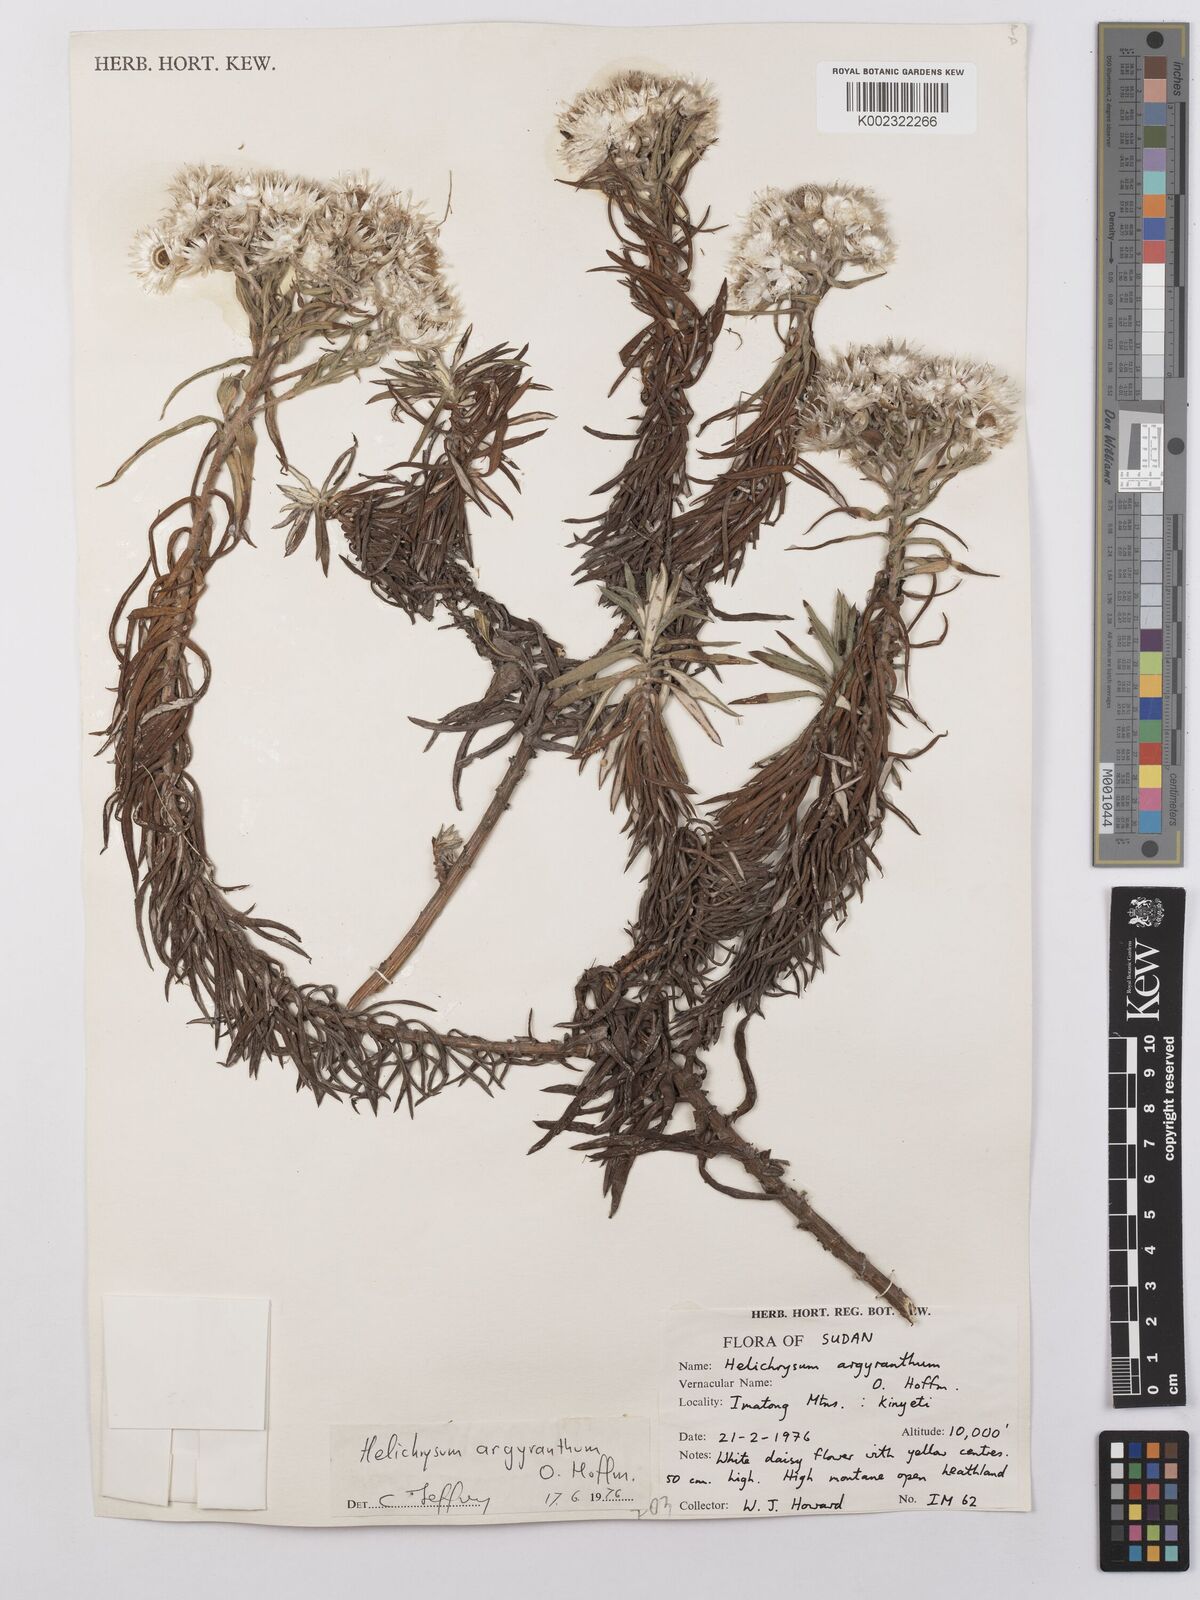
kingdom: Plantae
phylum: Tracheophyta
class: Magnoliopsida
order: Asterales
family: Asteraceae
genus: Helichrysum
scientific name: Helichrysum argyranthum
